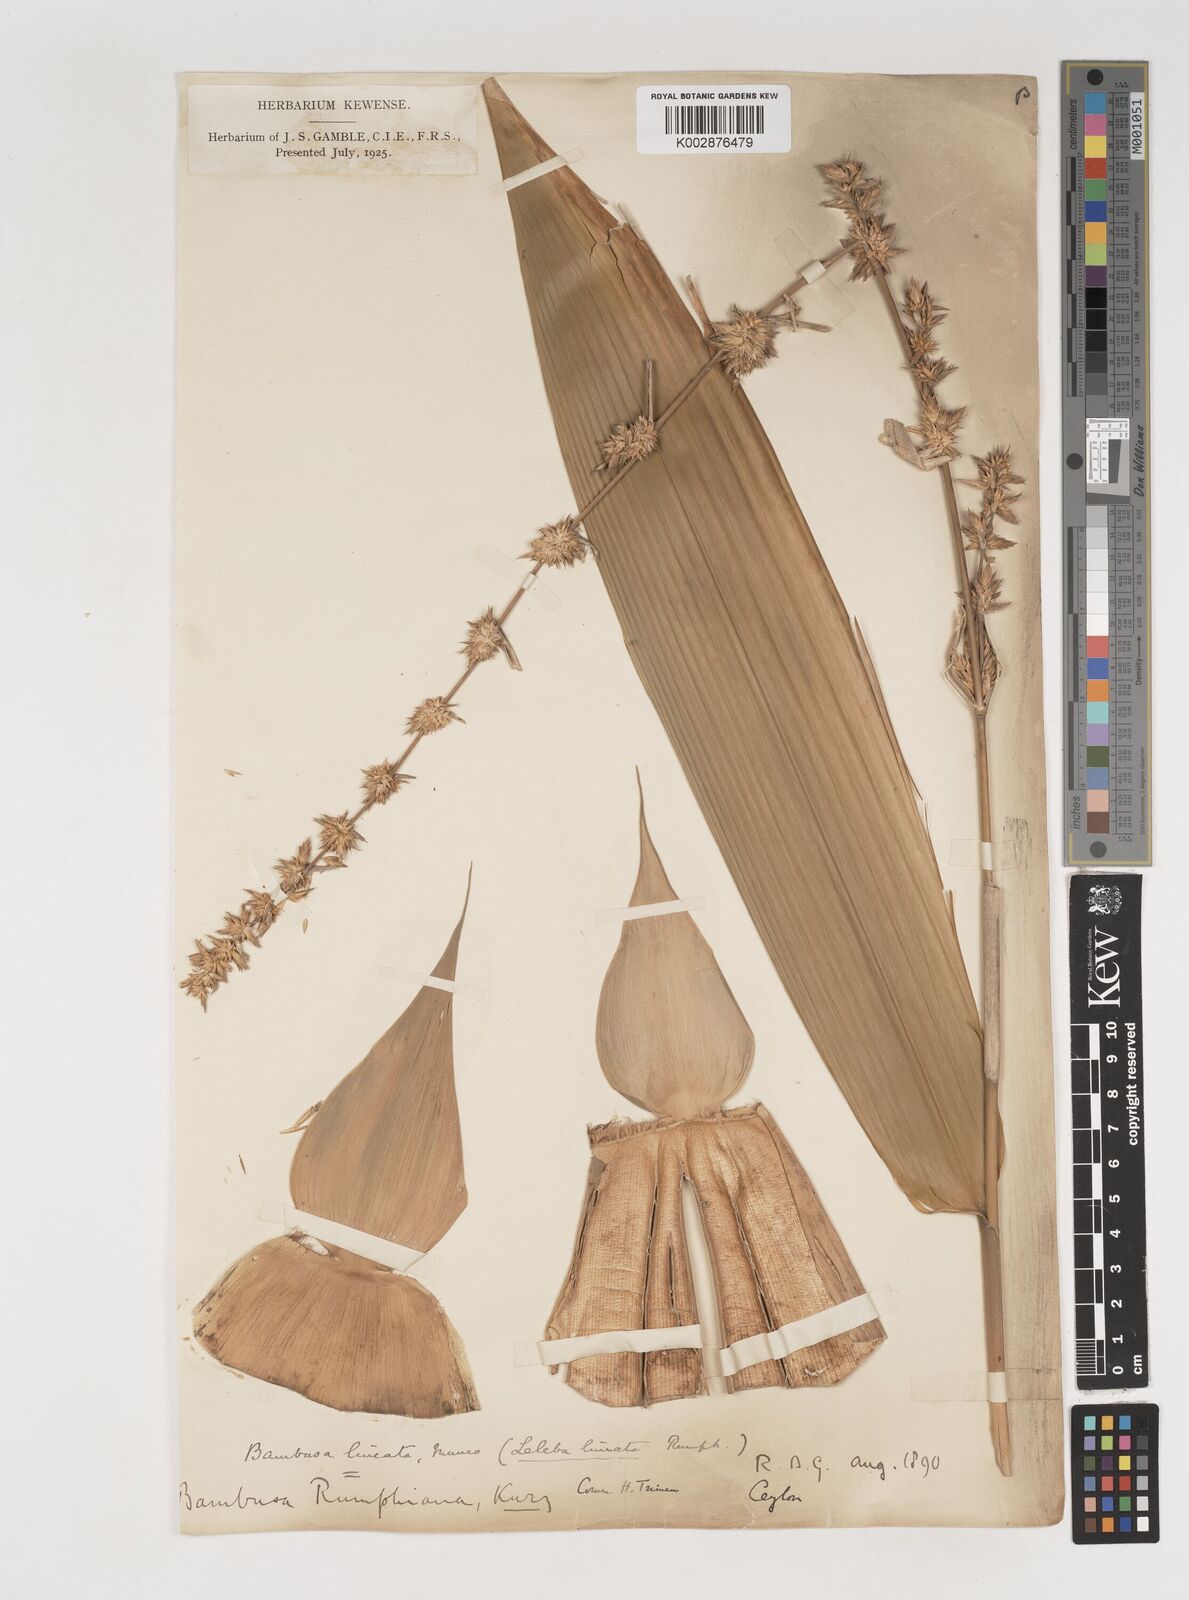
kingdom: Plantae
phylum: Tracheophyta
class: Liliopsida
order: Poales
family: Poaceae
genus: Neololeba
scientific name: Neololeba amahussana
